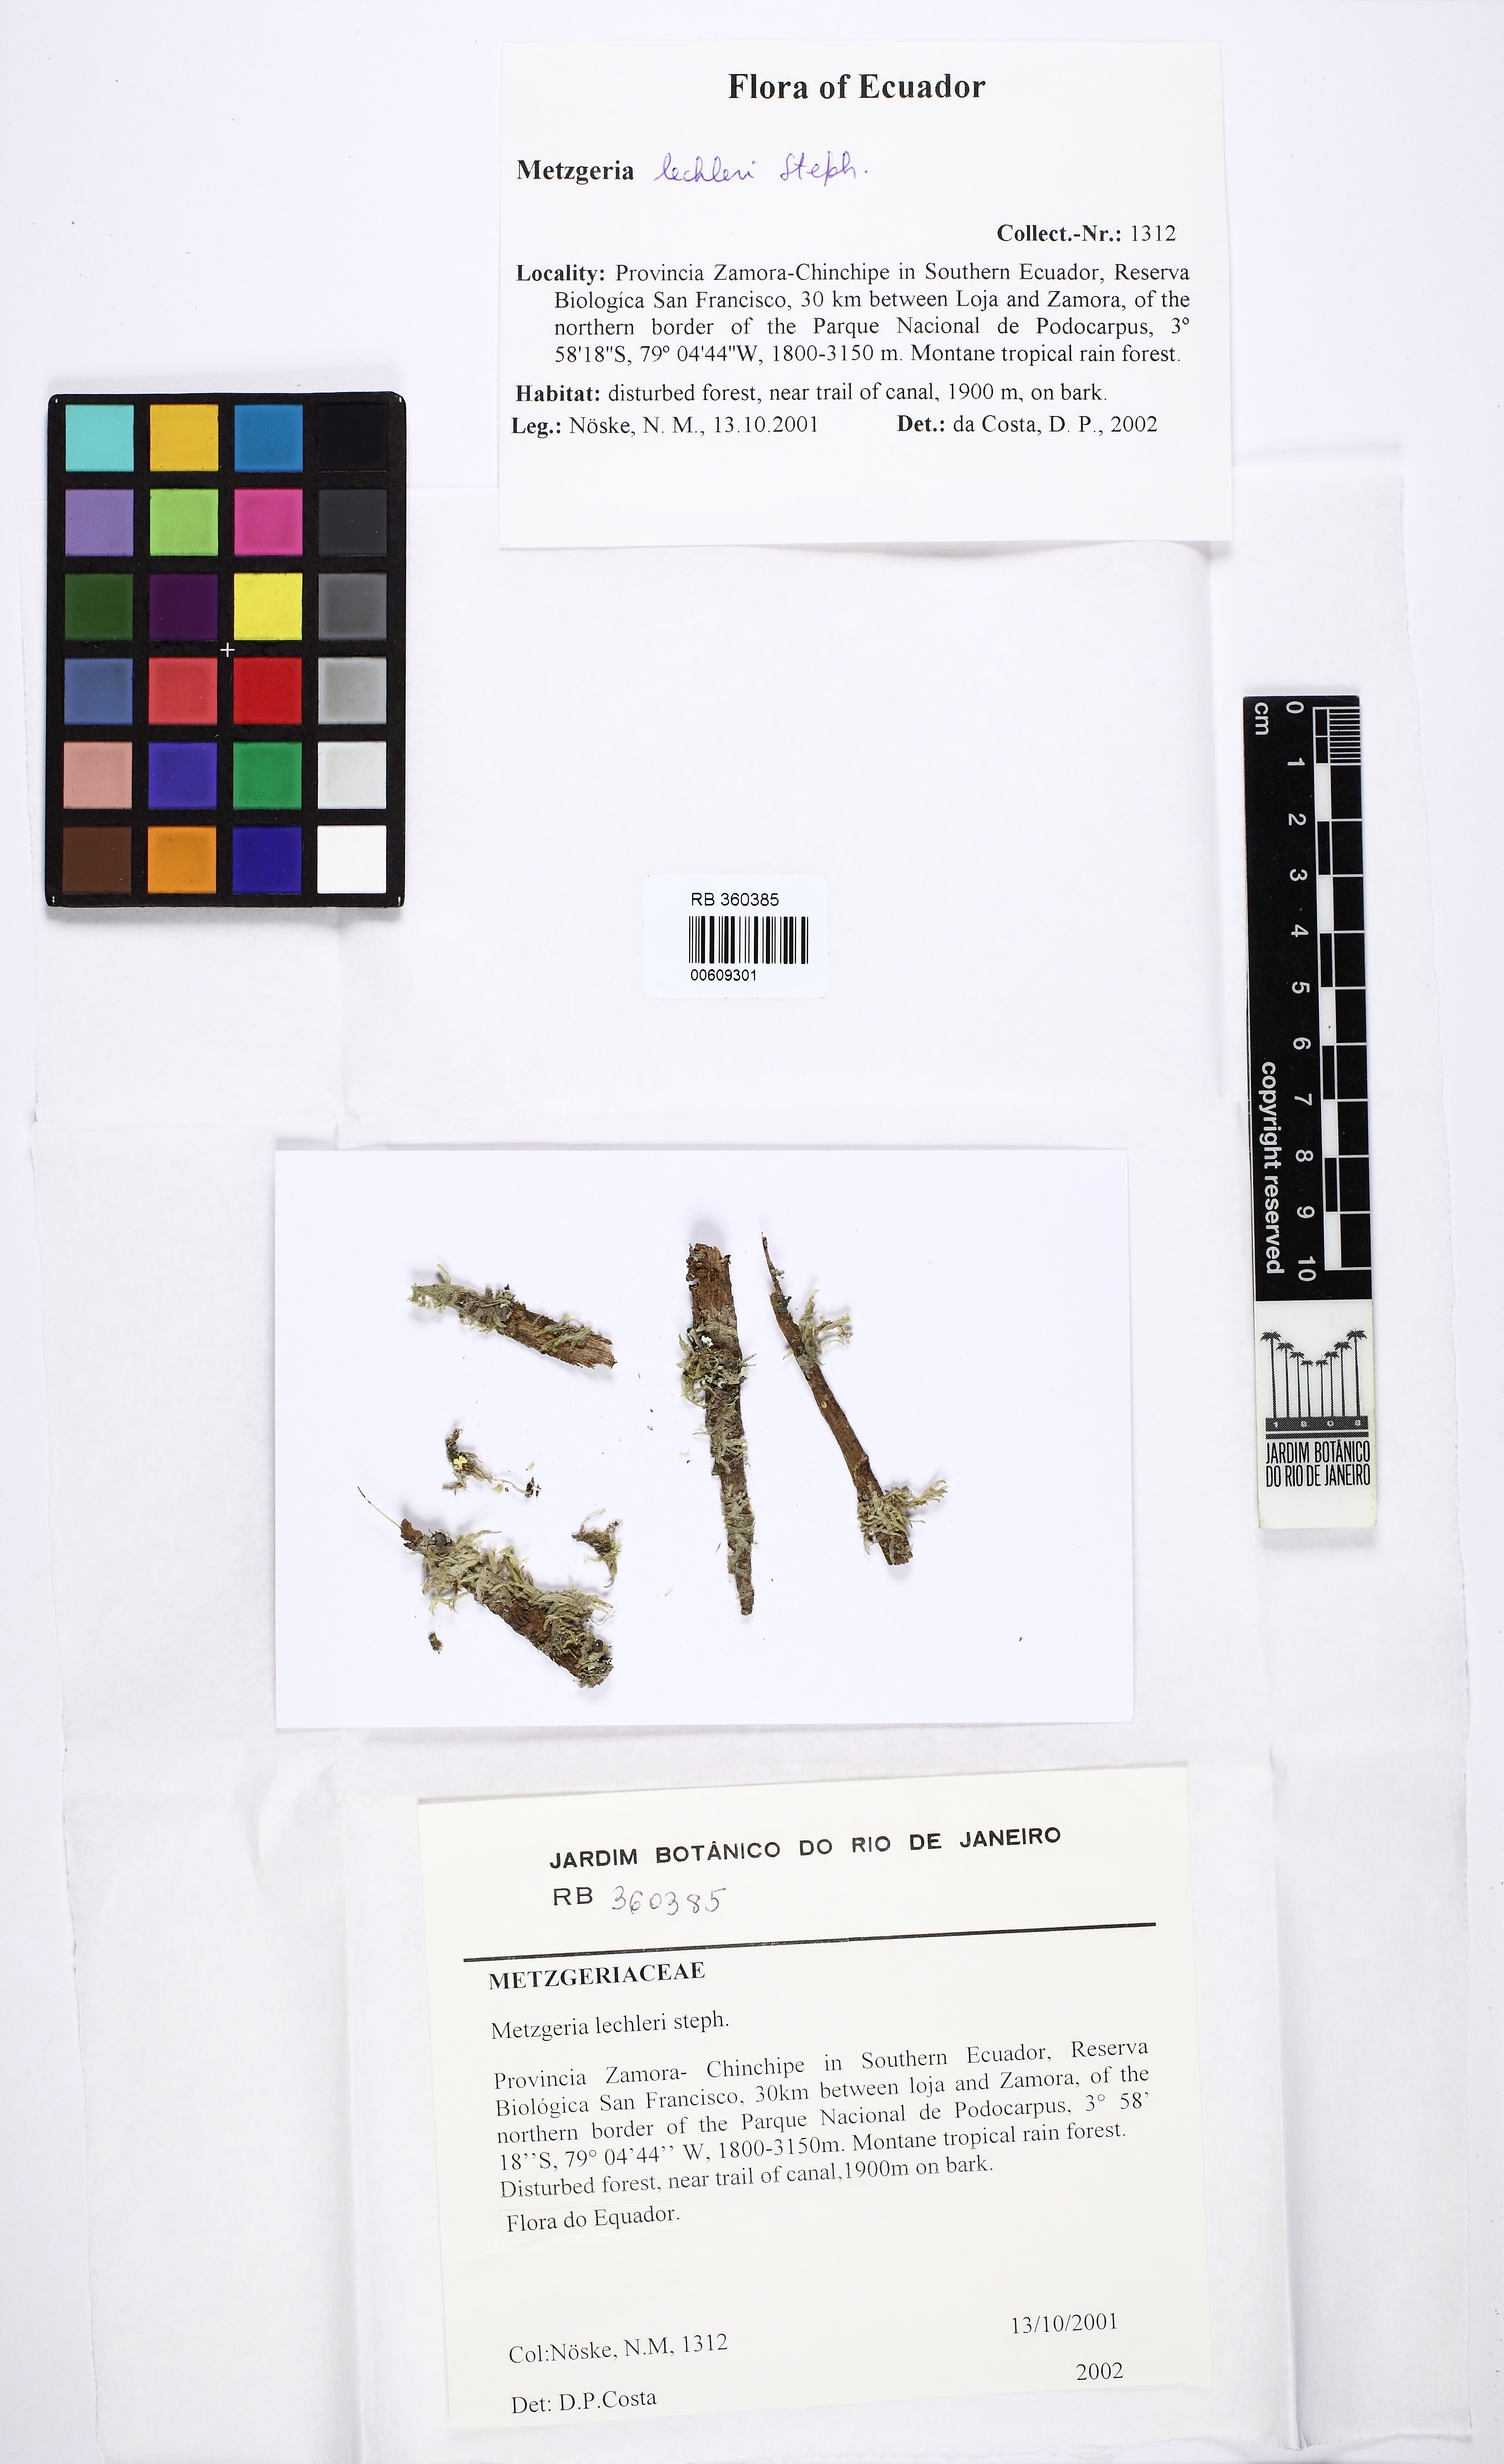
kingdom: Plantae
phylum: Marchantiophyta
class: Jungermanniopsida
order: Metzgeriales
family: Metzgeriaceae
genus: Metzgeria
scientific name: Metzgeria lechleri
